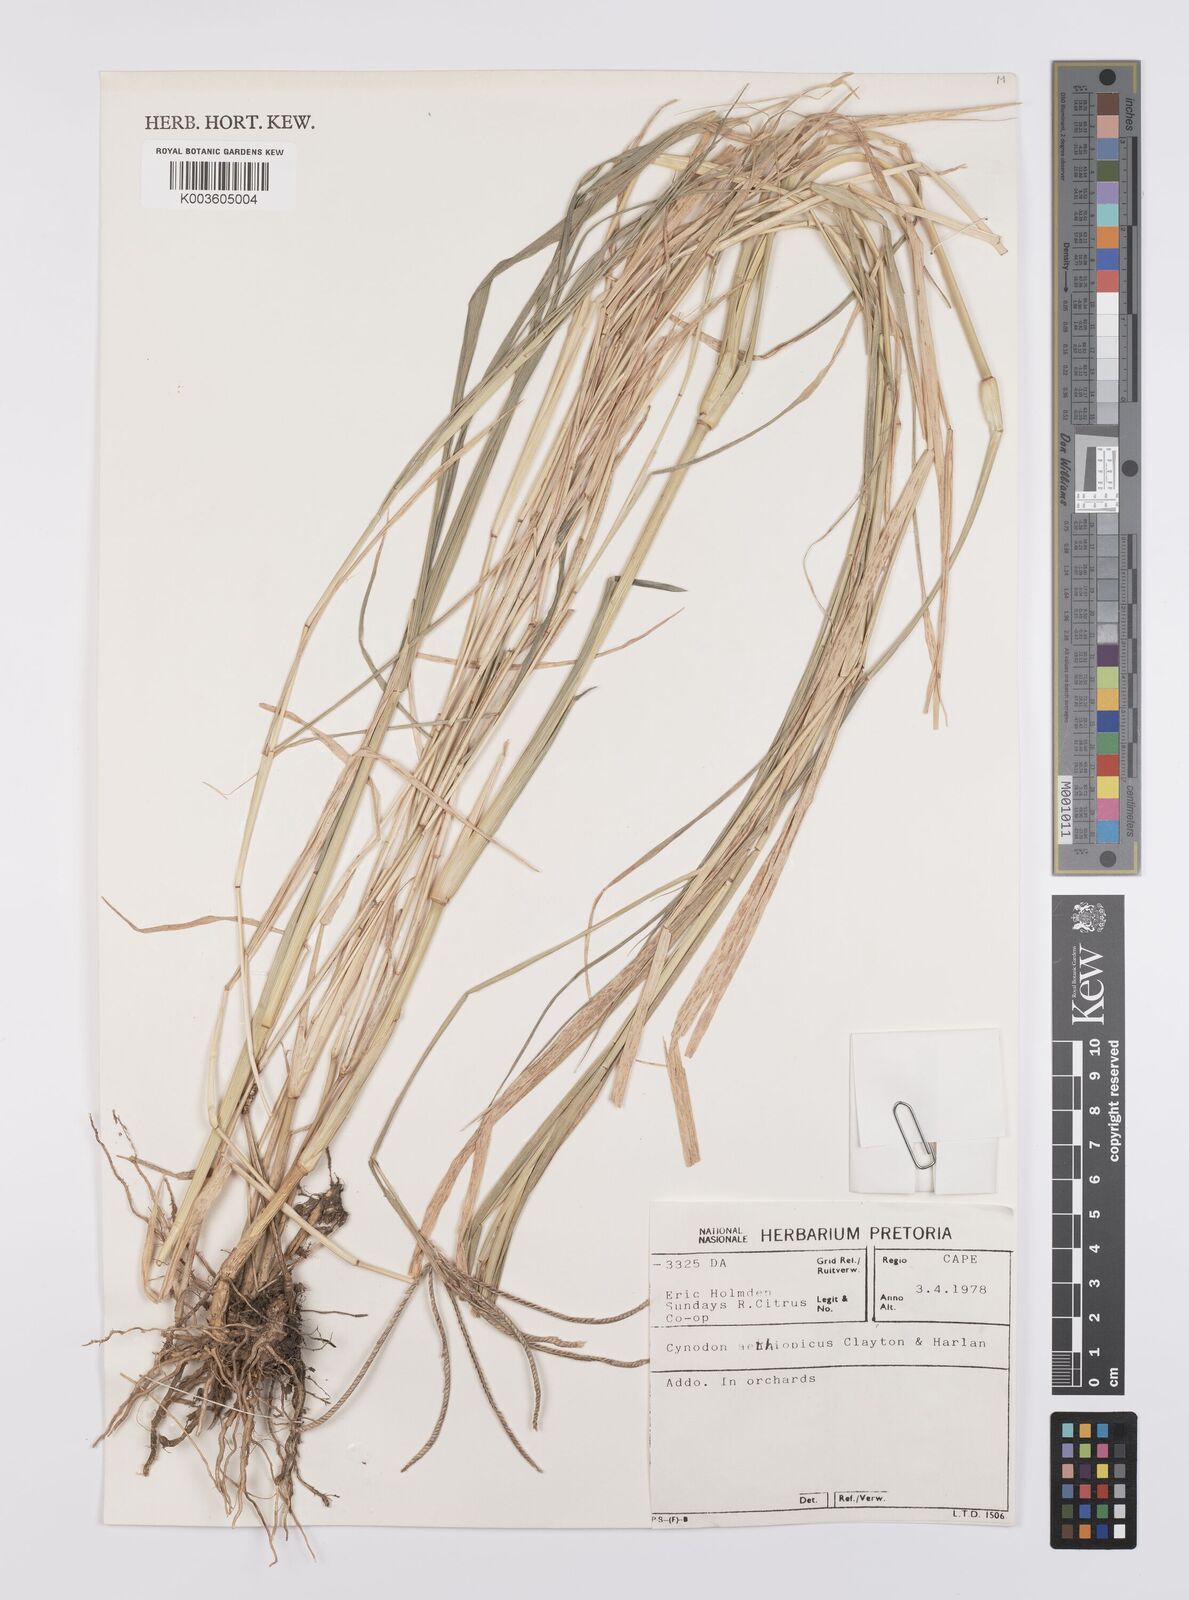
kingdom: Plantae
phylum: Tracheophyta
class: Liliopsida
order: Poales
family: Poaceae
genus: Cynodon
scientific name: Cynodon aethiopicus
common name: Ethiopian dogstooth grass
